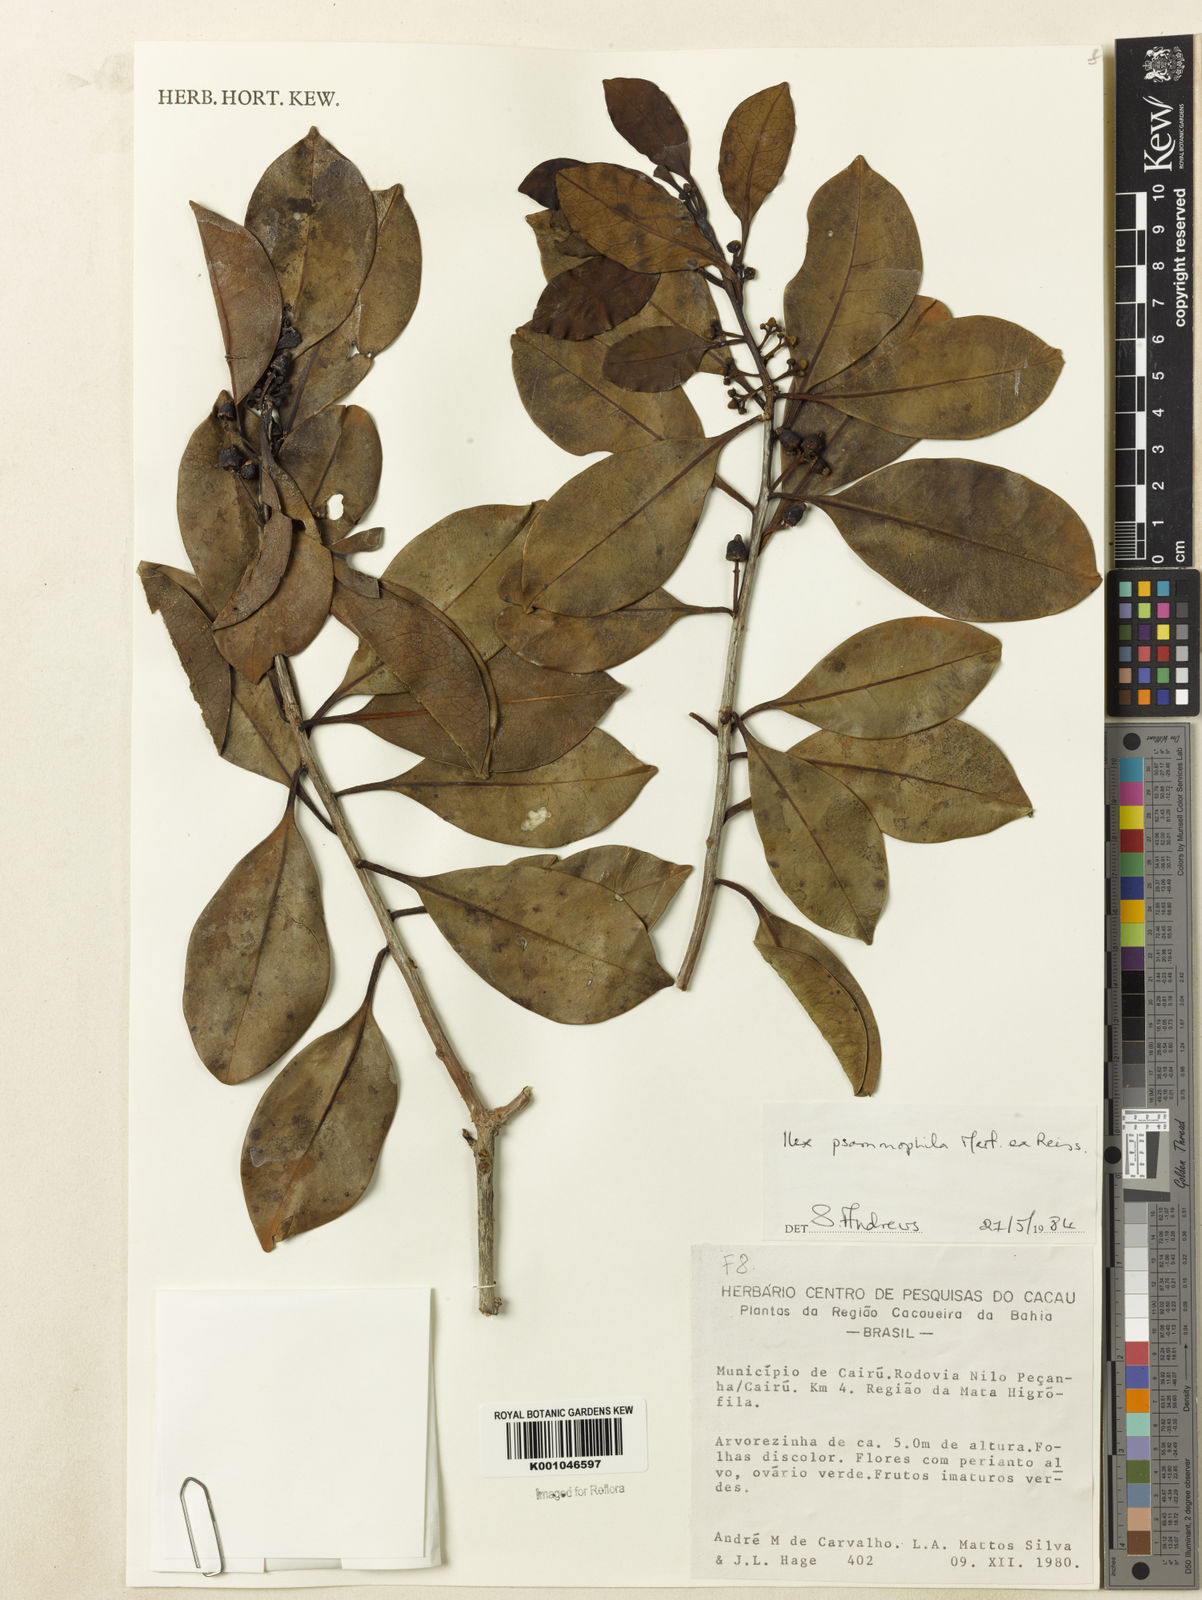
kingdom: Plantae
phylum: Tracheophyta
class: Magnoliopsida
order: Aquifoliales
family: Aquifoliaceae
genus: Ilex
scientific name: Ilex psammophila
